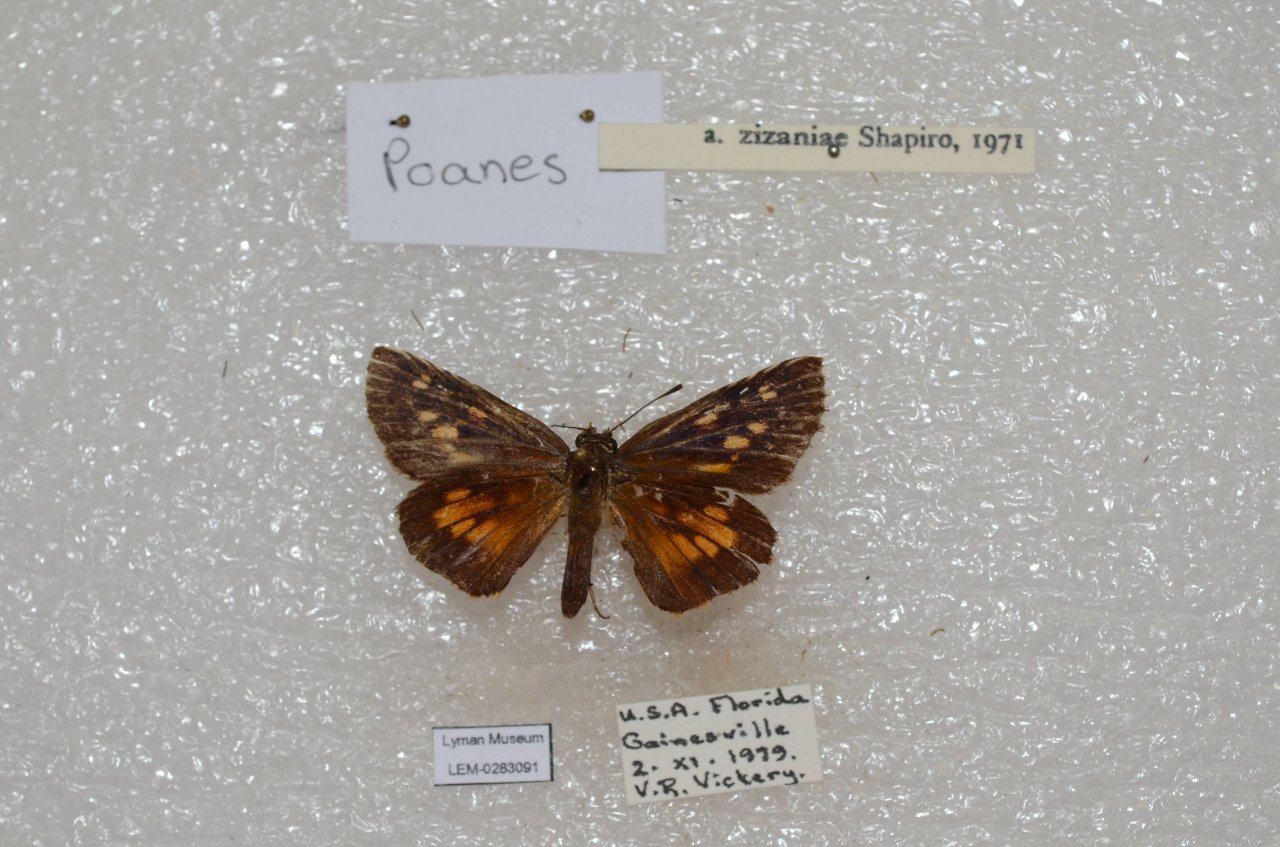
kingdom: Animalia
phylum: Arthropoda
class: Insecta
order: Lepidoptera
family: Hesperiidae
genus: Poanes
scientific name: Poanes viator
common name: Broad-winged Skipper
